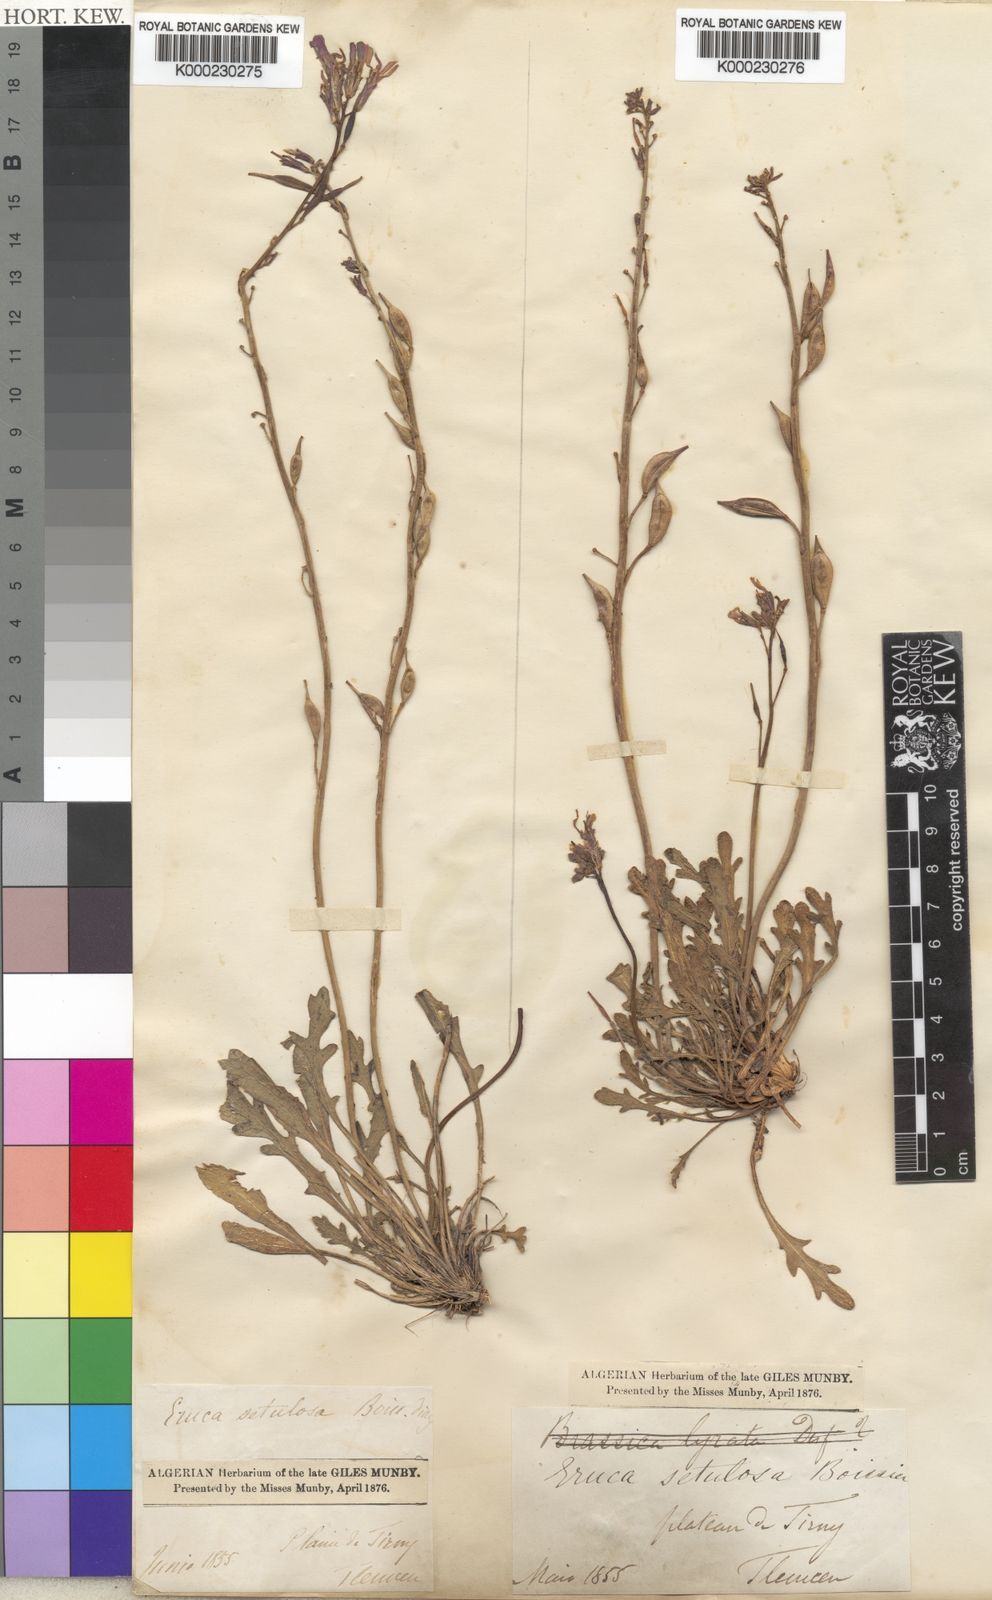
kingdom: Plantae
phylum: Tracheophyta
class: Magnoliopsida
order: Brassicales
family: Brassicaceae
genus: Eruca
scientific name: Eruca setulosa
